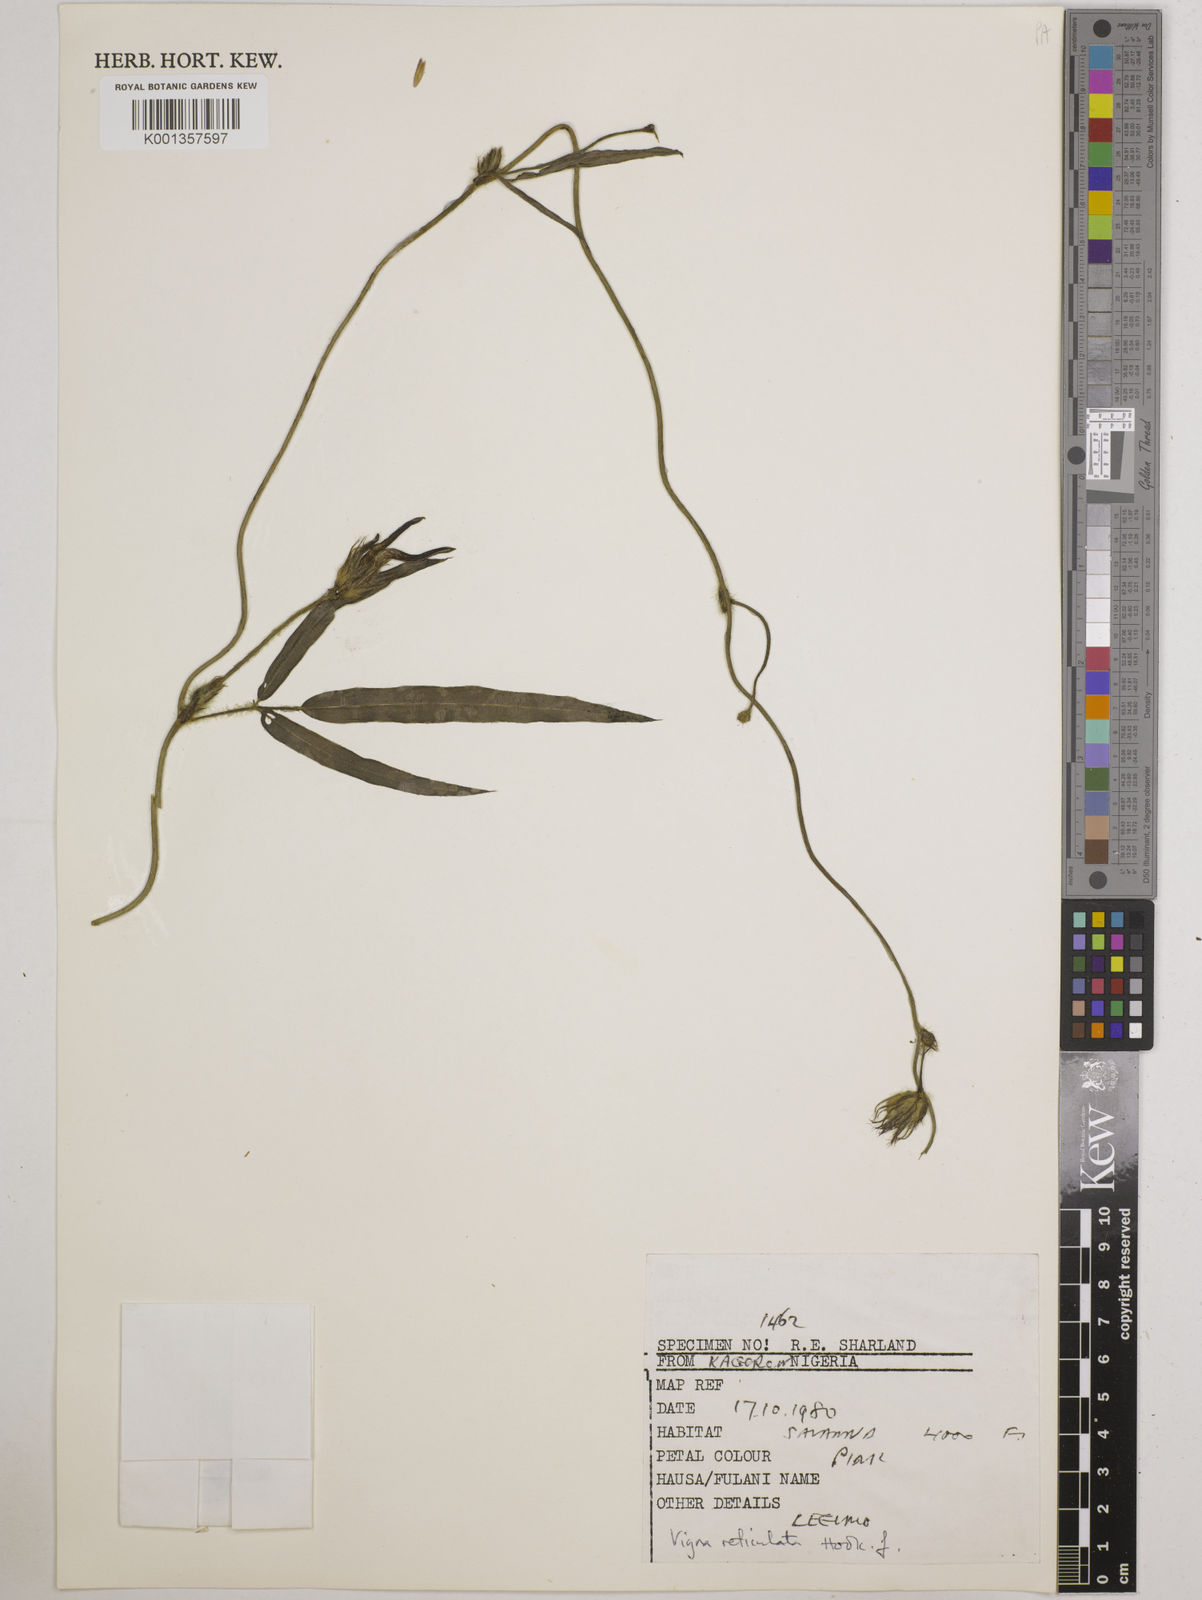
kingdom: Plantae
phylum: Tracheophyta
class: Magnoliopsida
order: Fabales
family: Fabaceae
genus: Vigna
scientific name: Vigna reticulata
